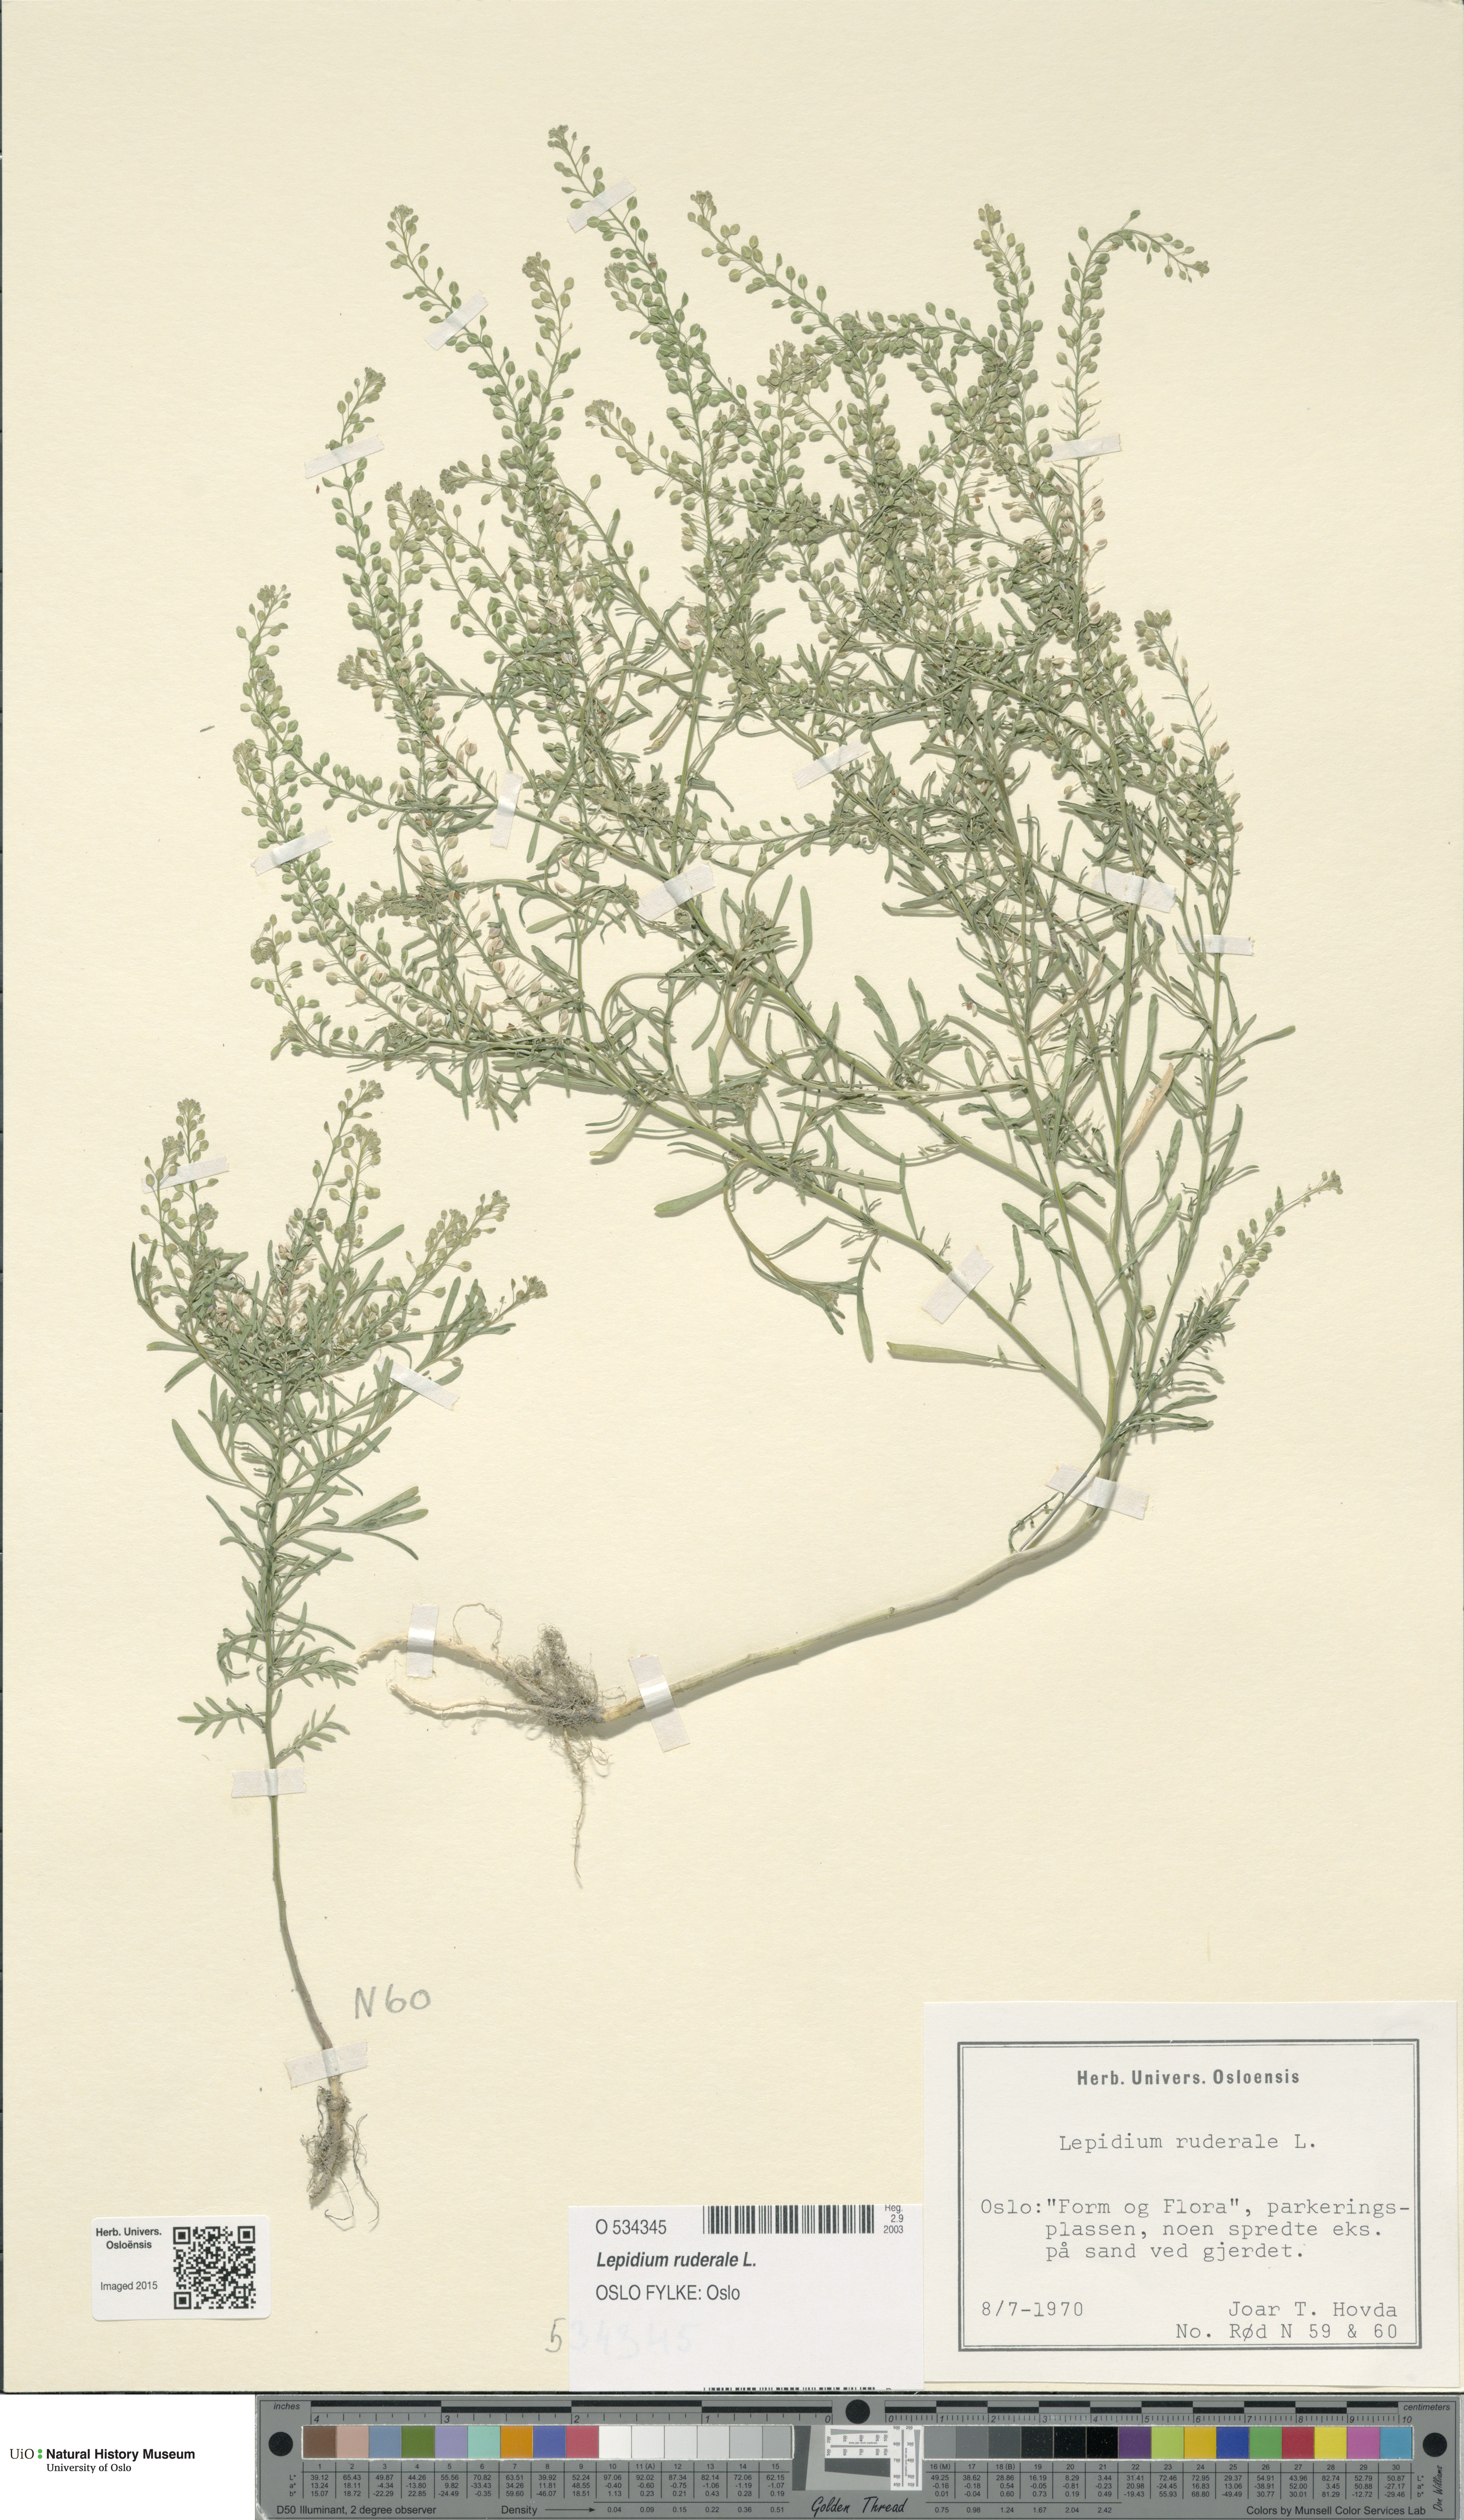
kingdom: Plantae
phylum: Tracheophyta
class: Magnoliopsida
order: Brassicales
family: Brassicaceae
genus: Lepidium
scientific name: Lepidium ruderale
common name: Narrow-leaved pepperwort
